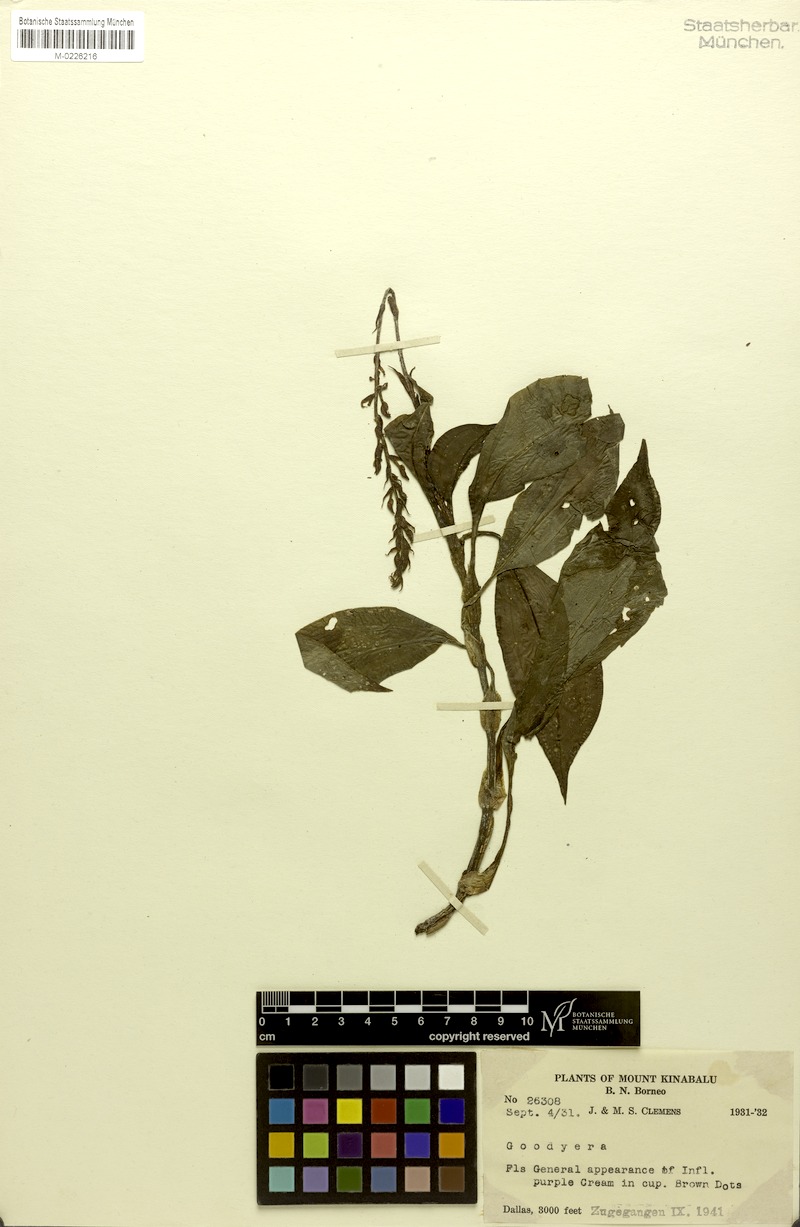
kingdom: Plantae
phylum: Tracheophyta
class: Liliopsida
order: Asparagales
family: Orchidaceae
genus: Goodyera
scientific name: Goodyera rubicunda
